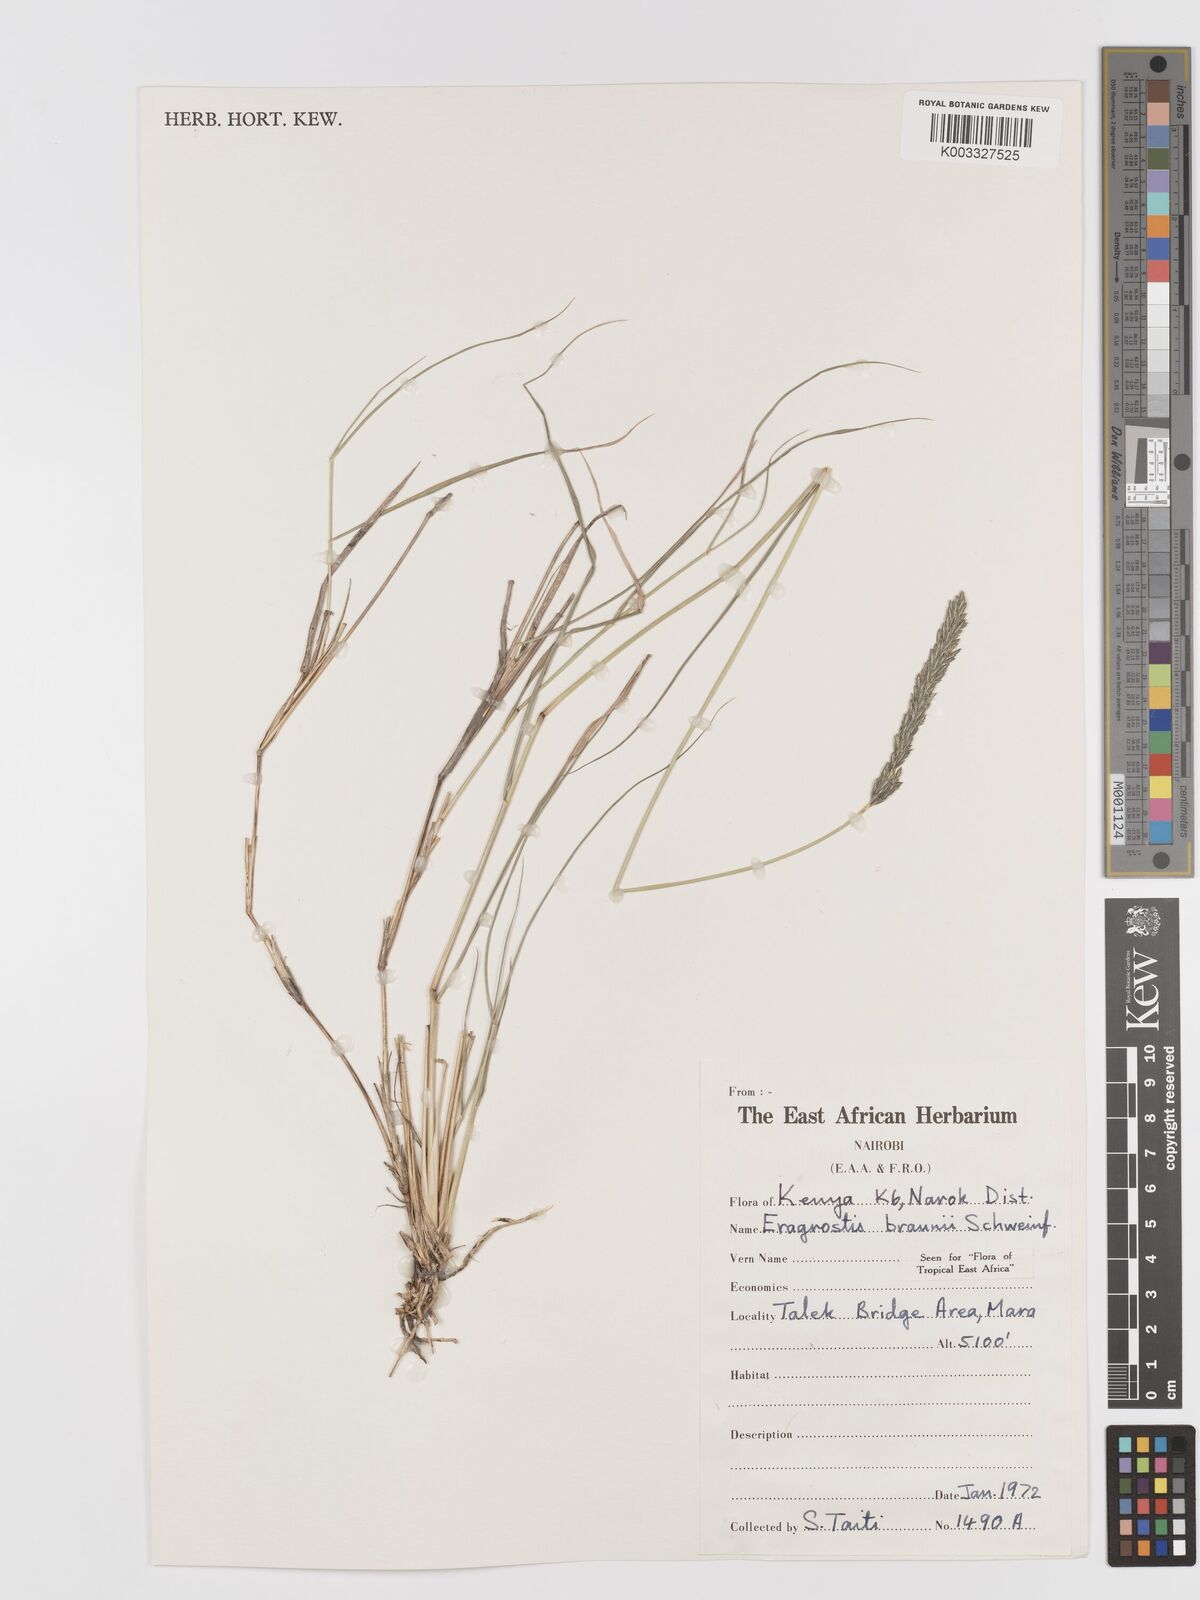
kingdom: Plantae
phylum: Tracheophyta
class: Liliopsida
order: Poales
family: Poaceae
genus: Eragrostis
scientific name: Eragrostis braunii
